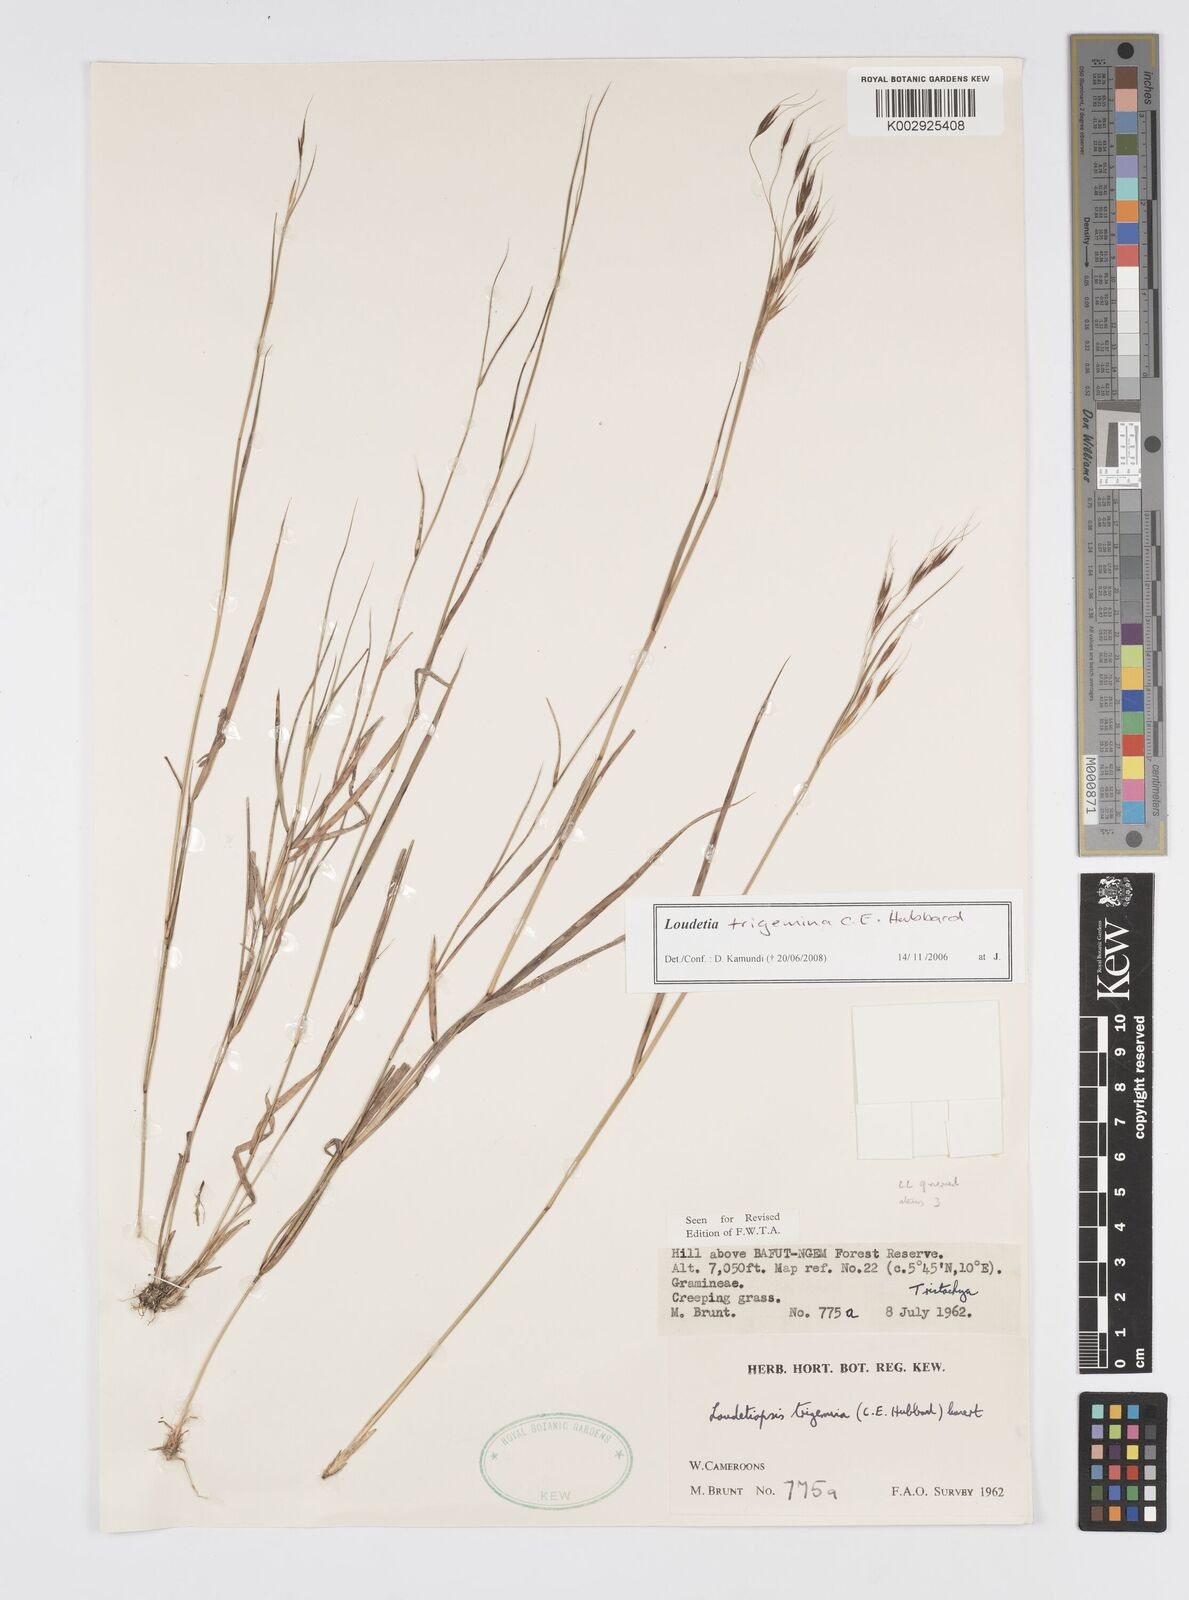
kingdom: Plantae
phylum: Tracheophyta
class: Liliopsida
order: Poales
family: Poaceae
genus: Loudetiopsis
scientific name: Loudetiopsis trigemina
